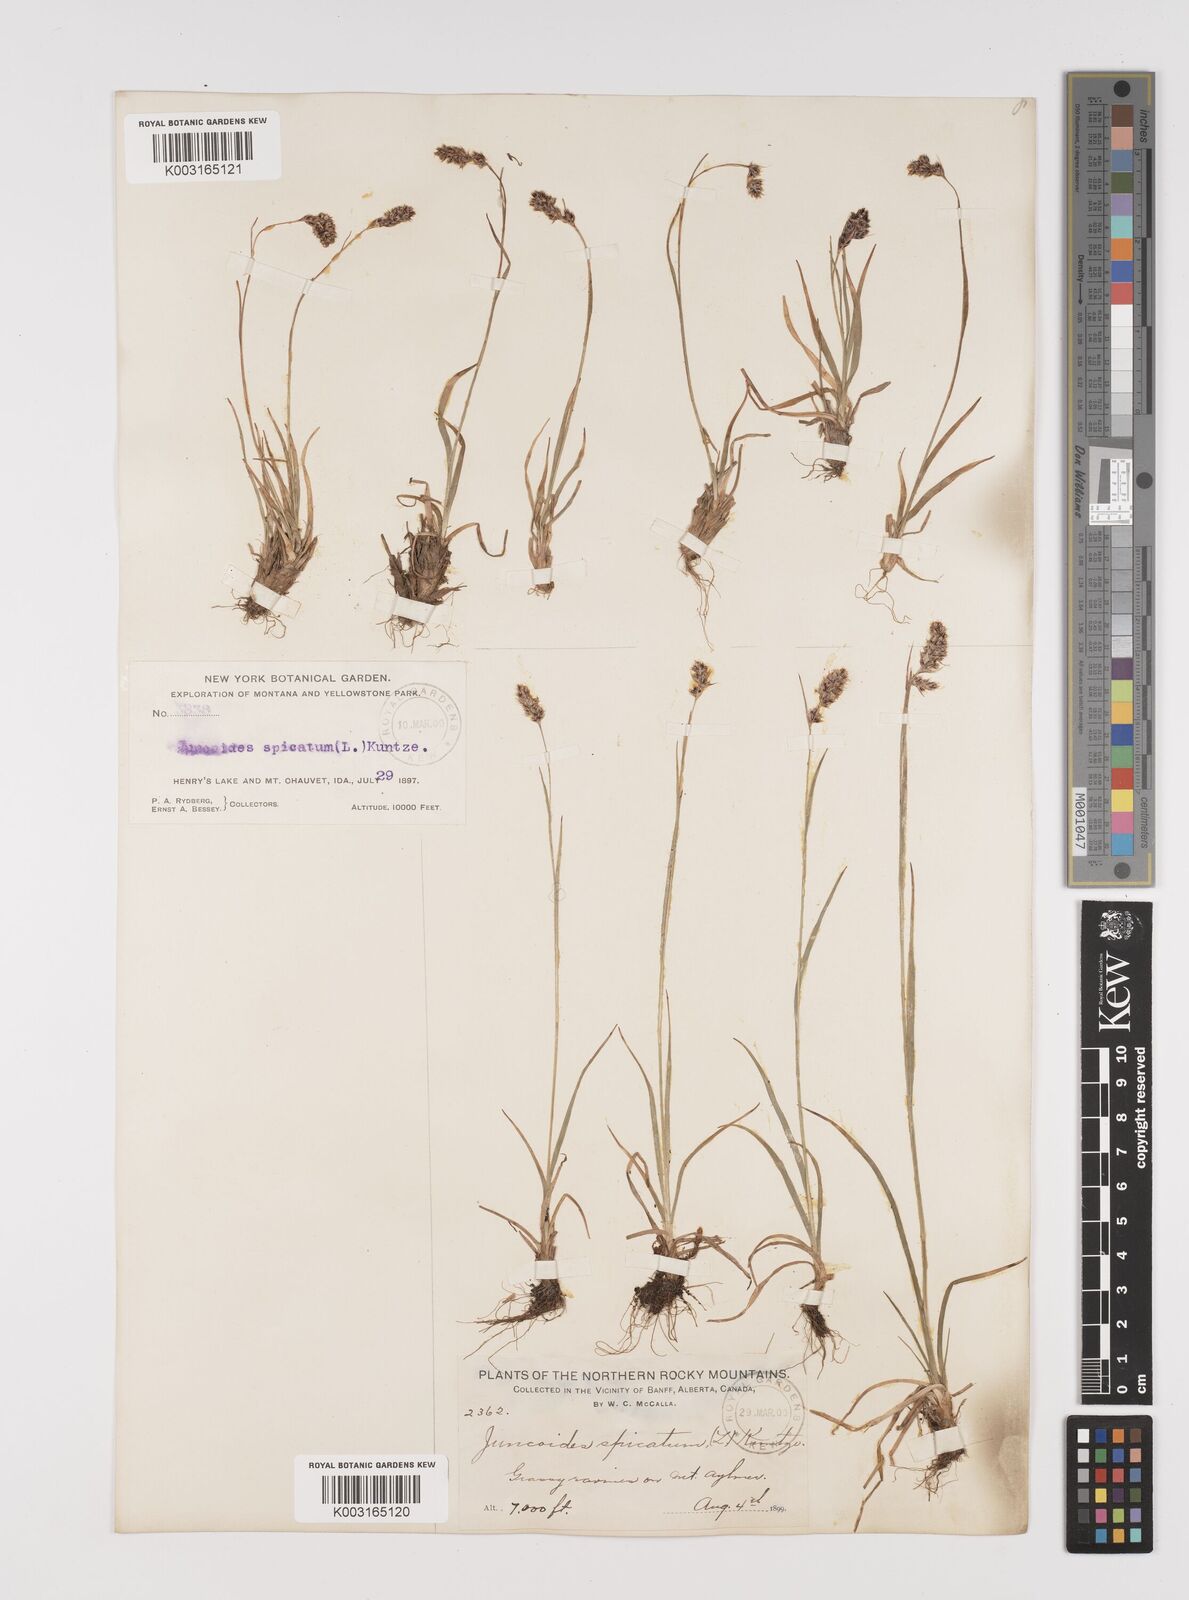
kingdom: Plantae
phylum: Tracheophyta
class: Liliopsida
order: Poales
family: Juncaceae
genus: Luzula
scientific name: Luzula spicata
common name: Spiked wood-rush
